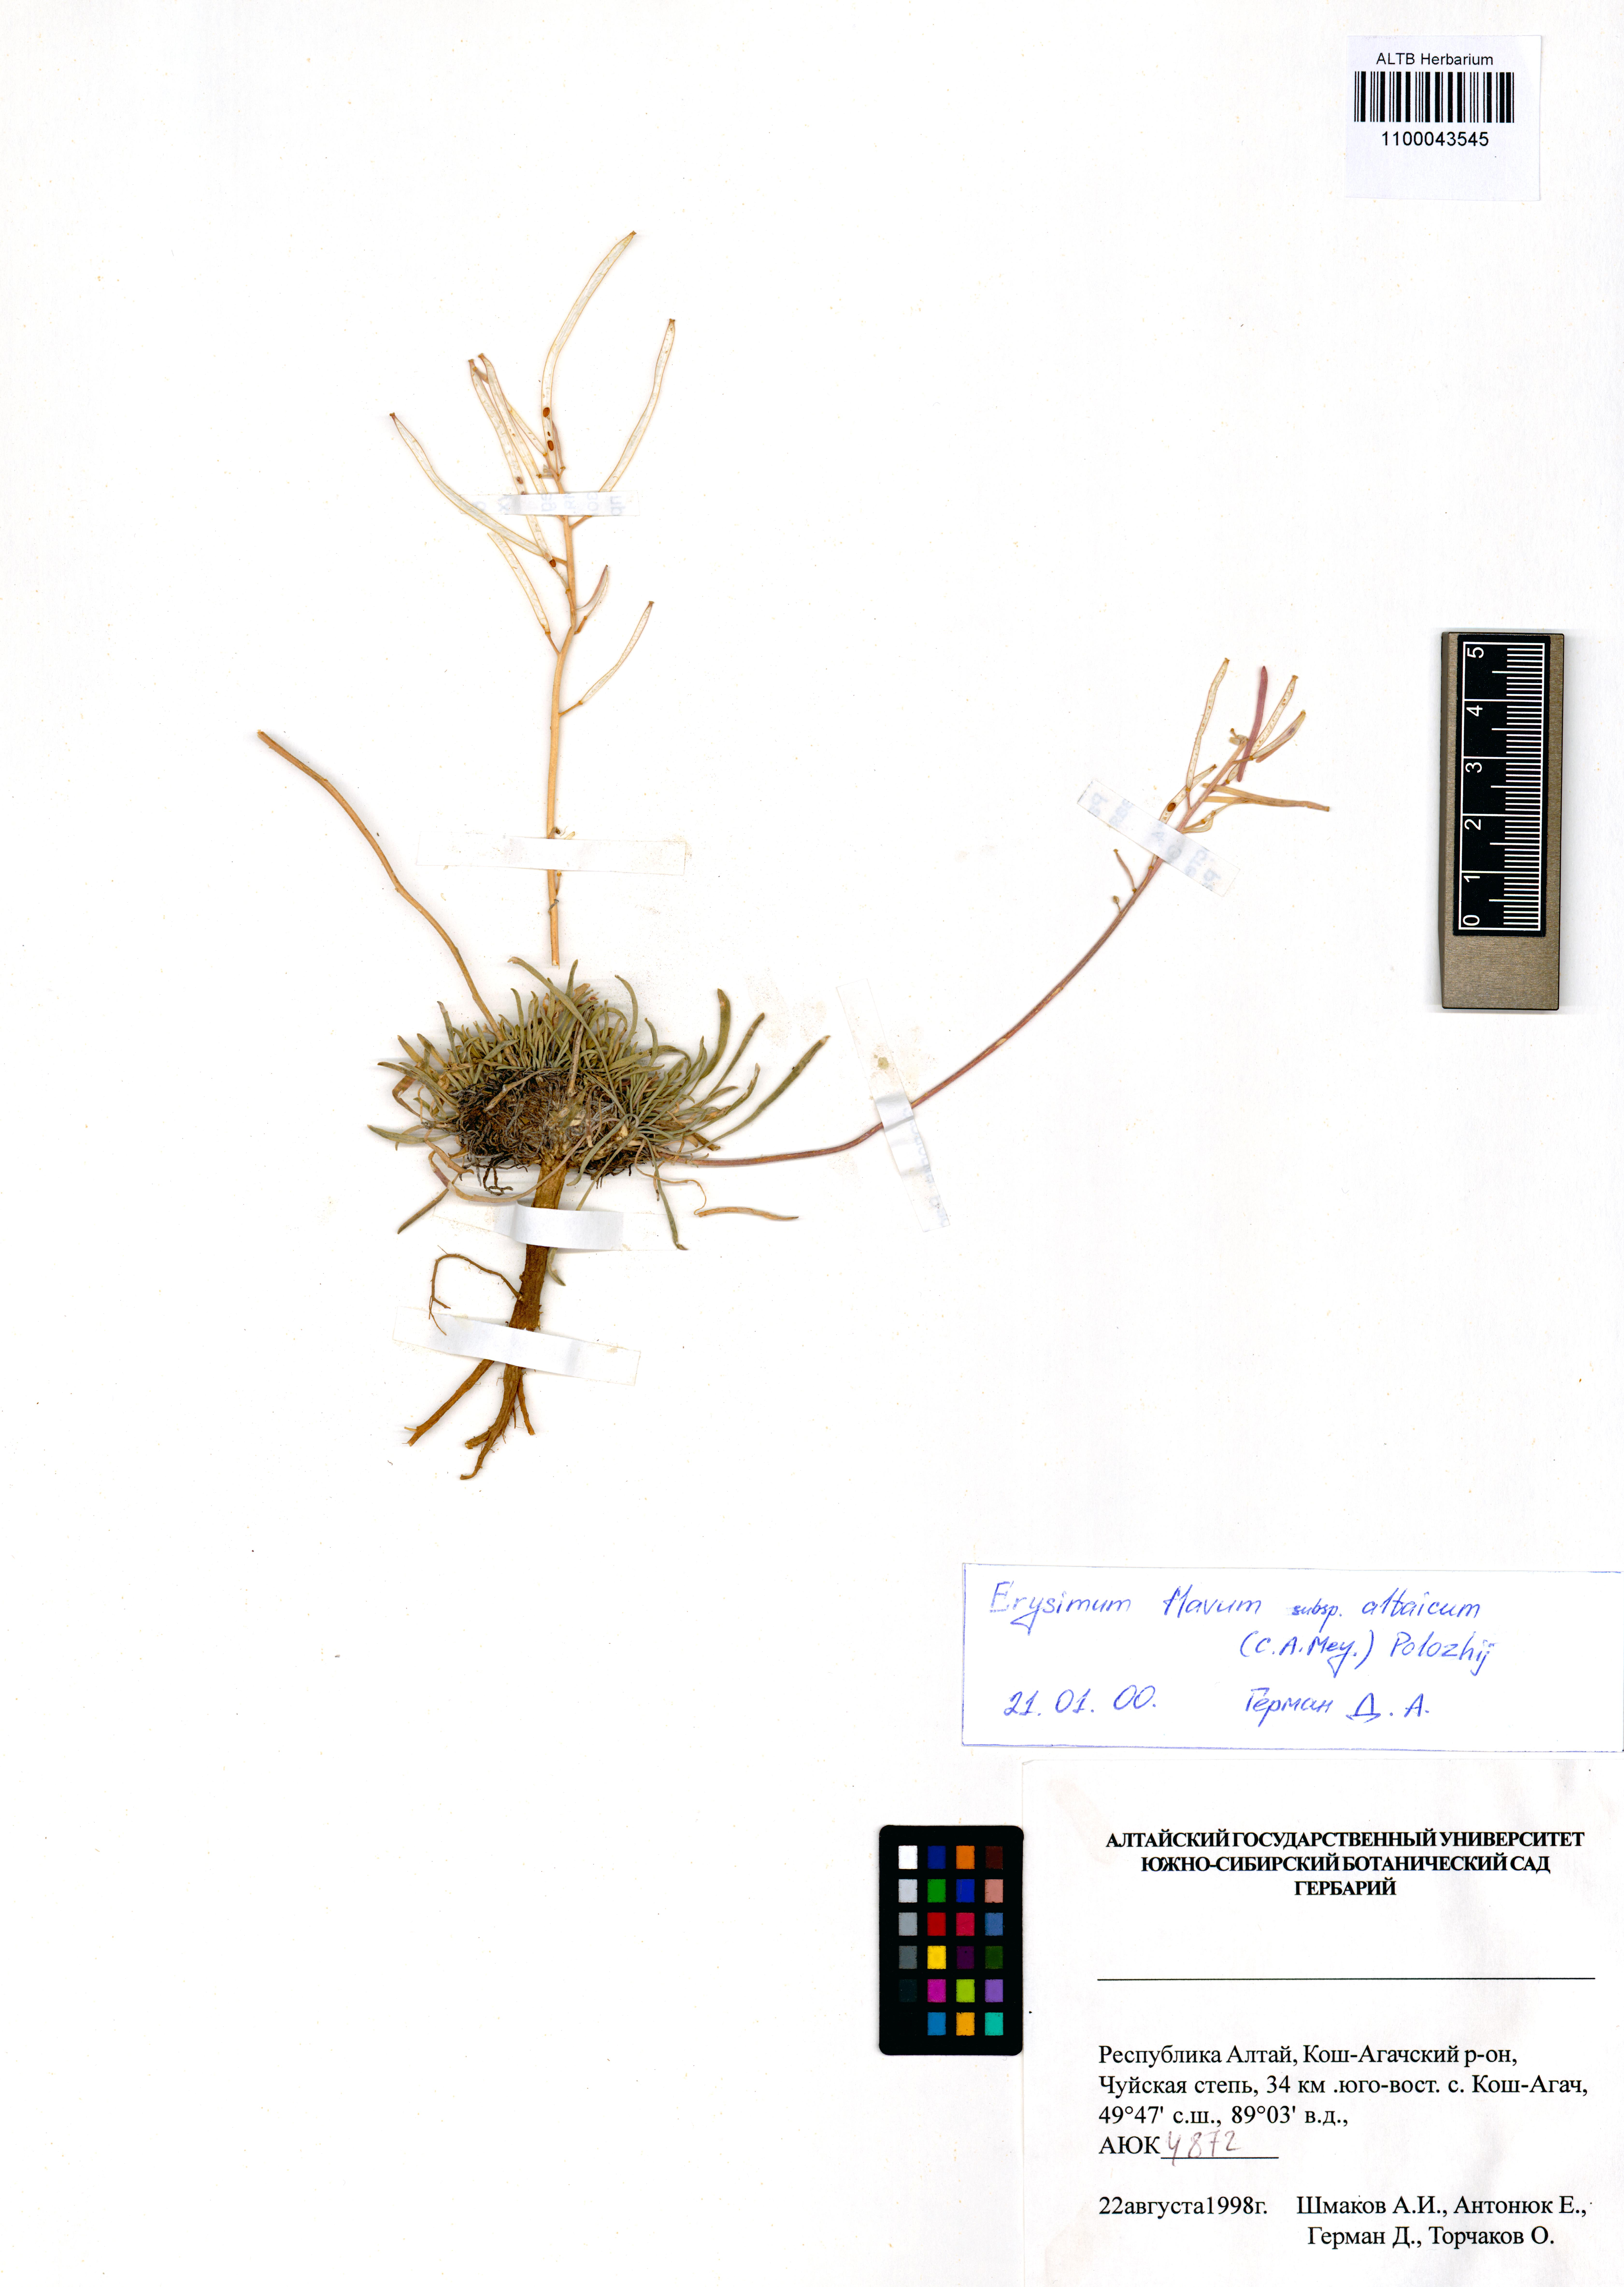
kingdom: Plantae
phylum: Tracheophyta
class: Magnoliopsida
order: Brassicales
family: Brassicaceae
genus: Erysimum
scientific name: Erysimum flavum
